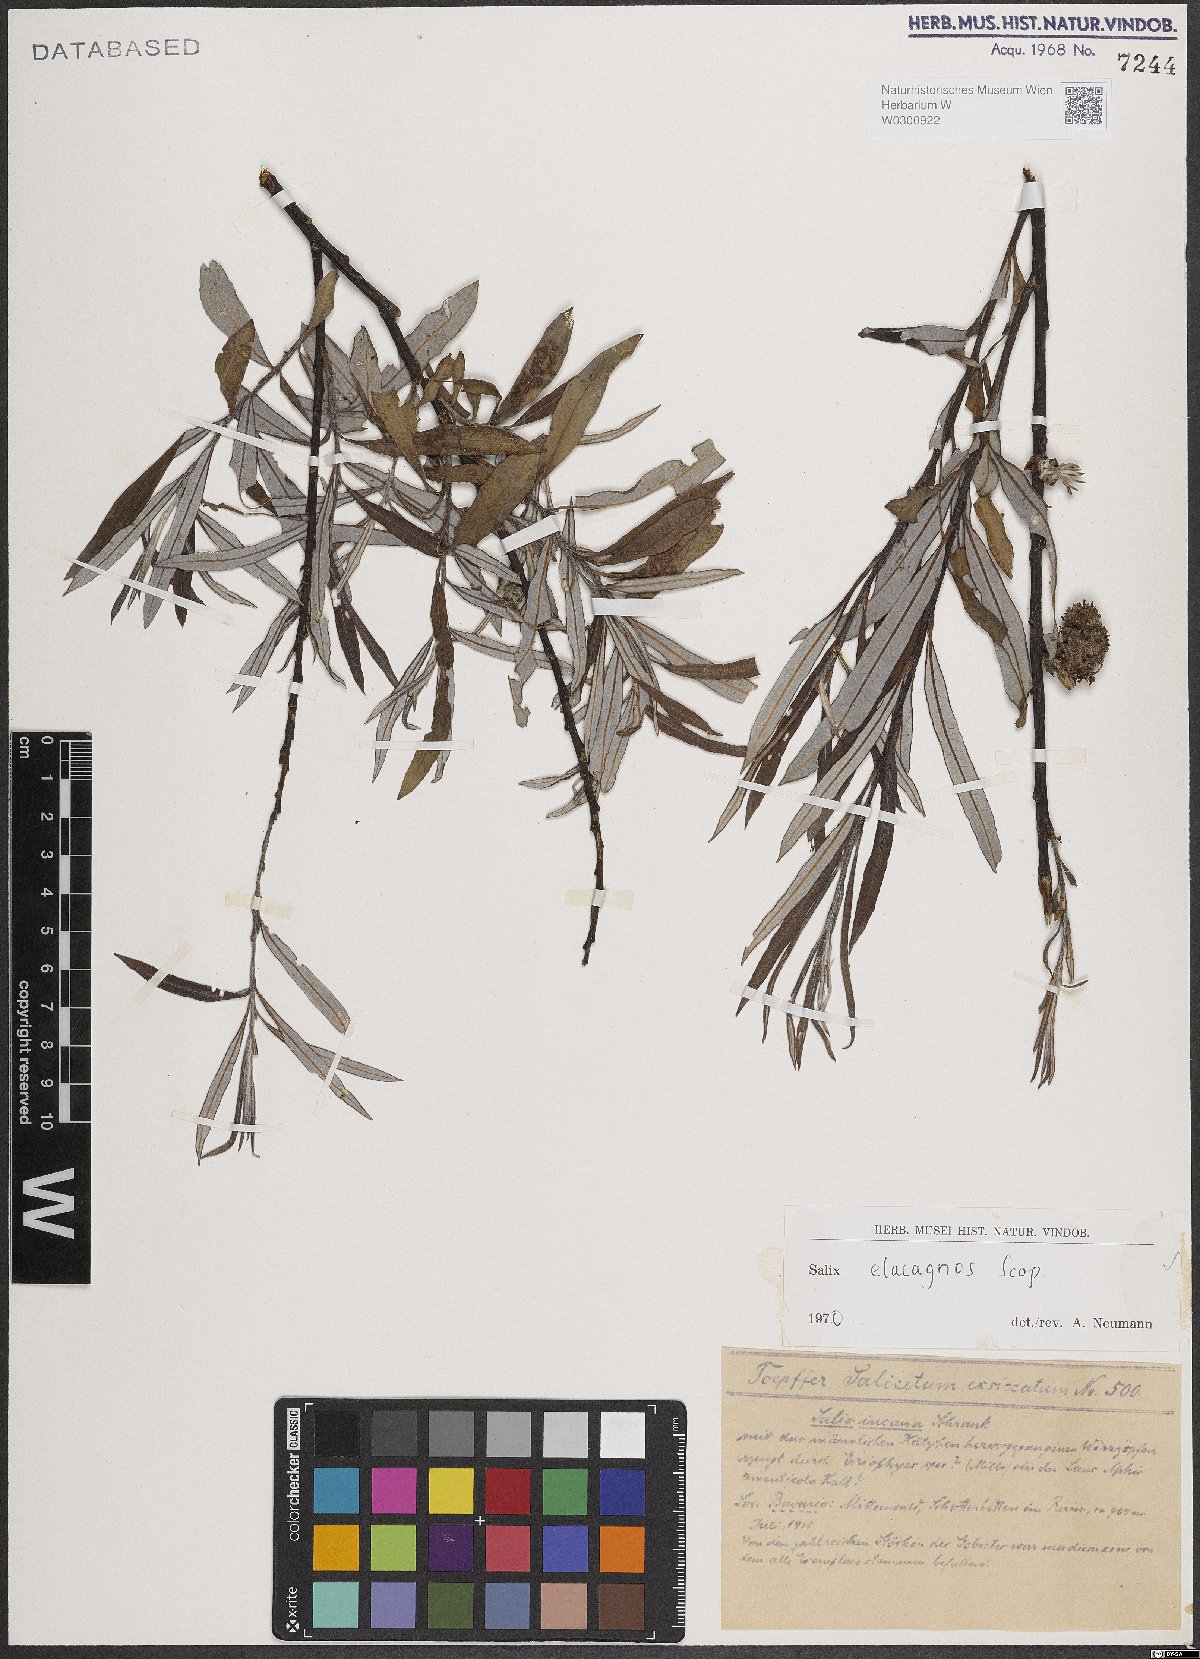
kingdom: Plantae
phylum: Tracheophyta
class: Magnoliopsida
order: Malpighiales
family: Salicaceae
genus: Salix
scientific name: Salix eleagnos
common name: Elaeagnus willow
